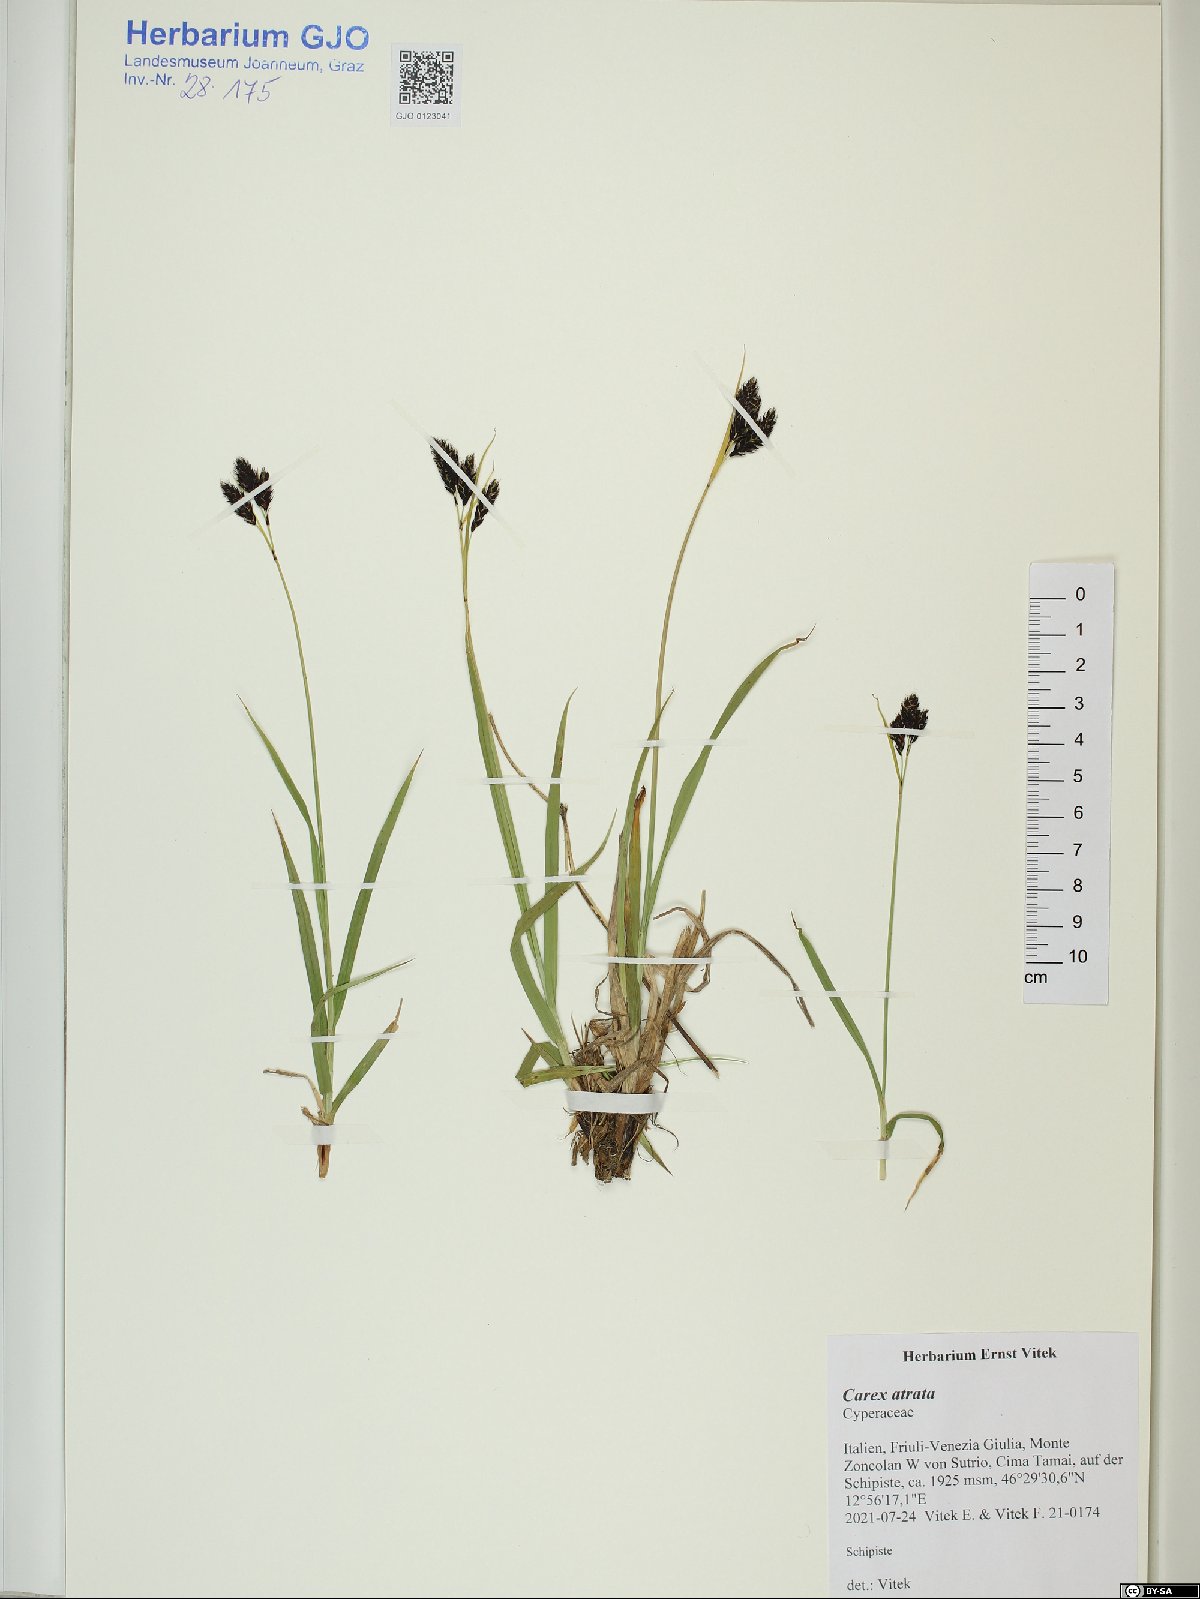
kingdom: Plantae
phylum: Tracheophyta
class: Liliopsida
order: Poales
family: Cyperaceae
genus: Carex
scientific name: Carex atrata
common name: Black alpine sedge
